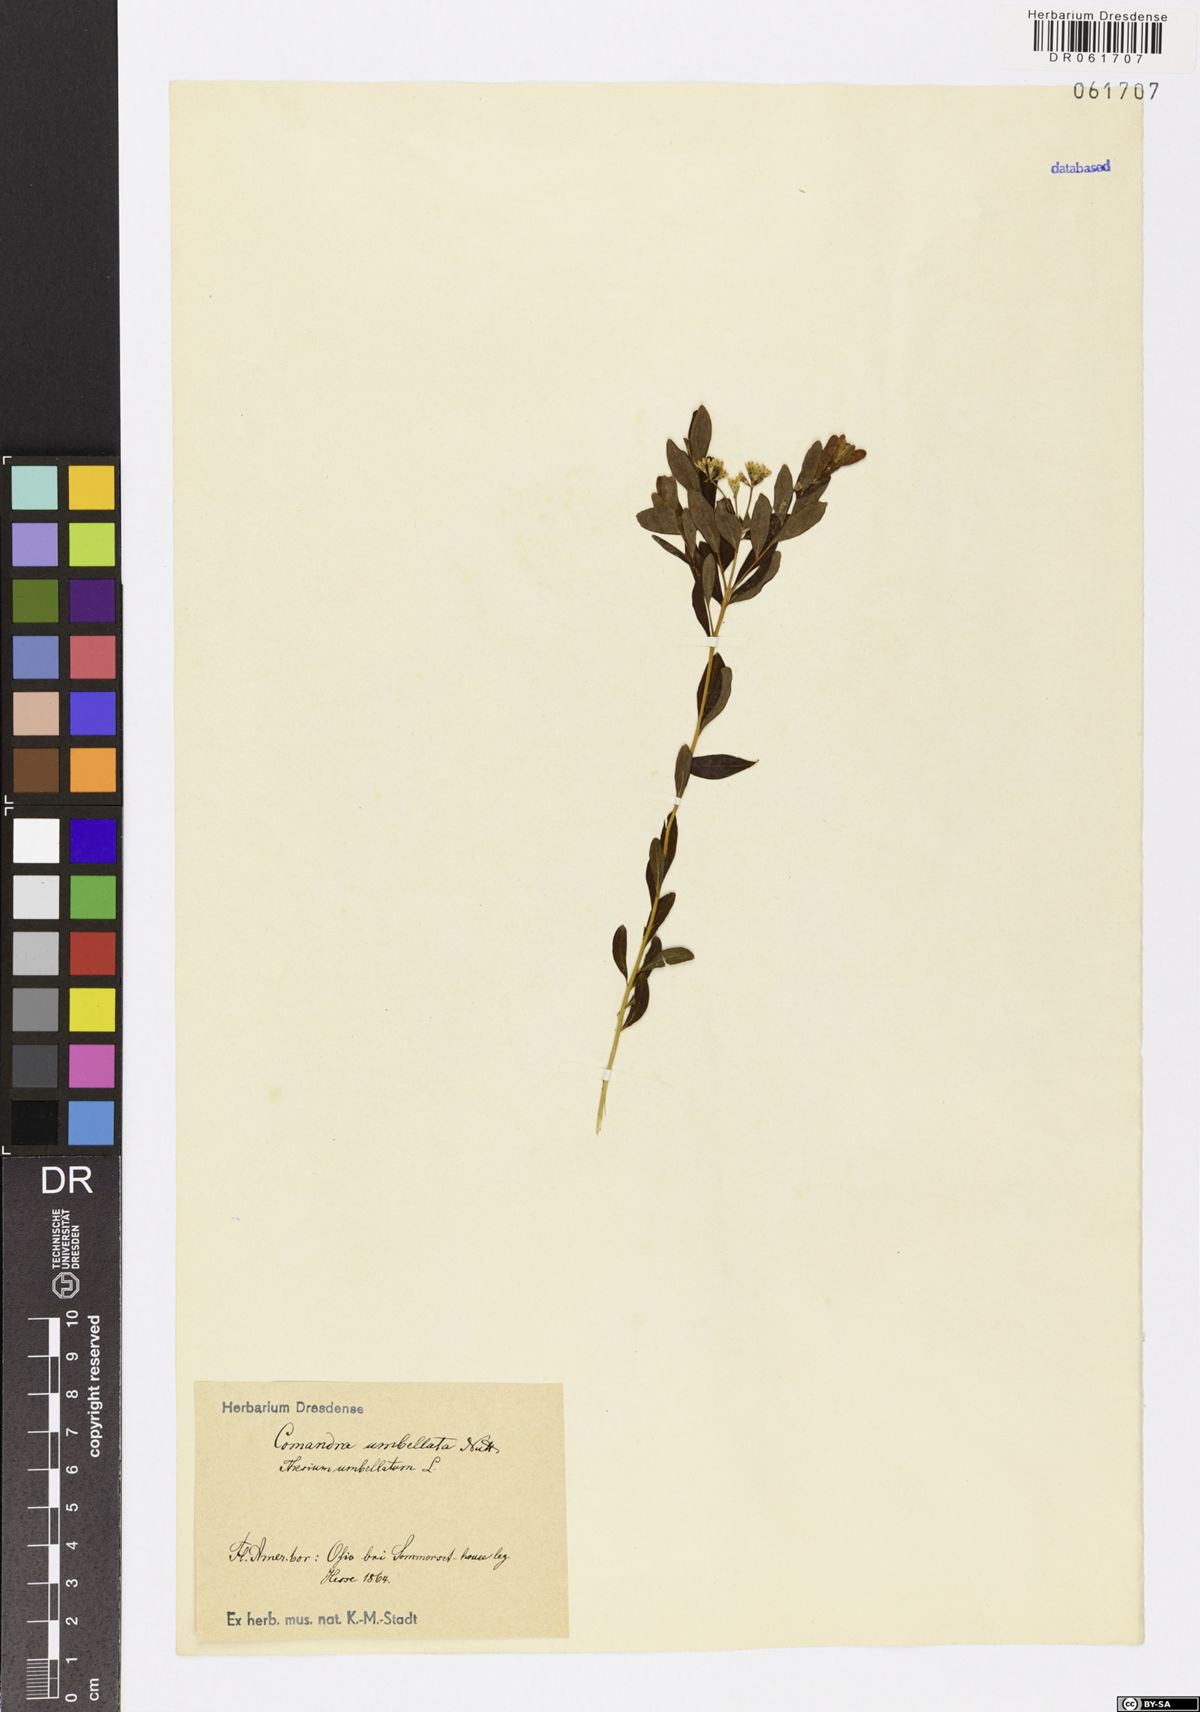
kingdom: Plantae
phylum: Tracheophyta
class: Magnoliopsida
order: Santalales
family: Comandraceae
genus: Comandra
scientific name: Comandra umbellata
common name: Bastard toadflax
